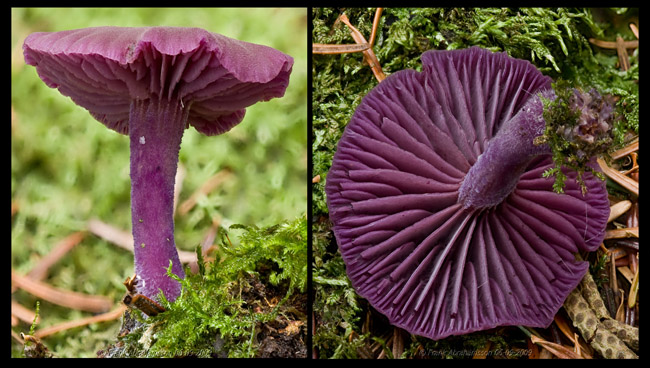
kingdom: Fungi
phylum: Basidiomycota
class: Agaricomycetes
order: Agaricales
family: Hydnangiaceae
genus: Laccaria
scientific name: Laccaria amethystina
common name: violet ametysthat
